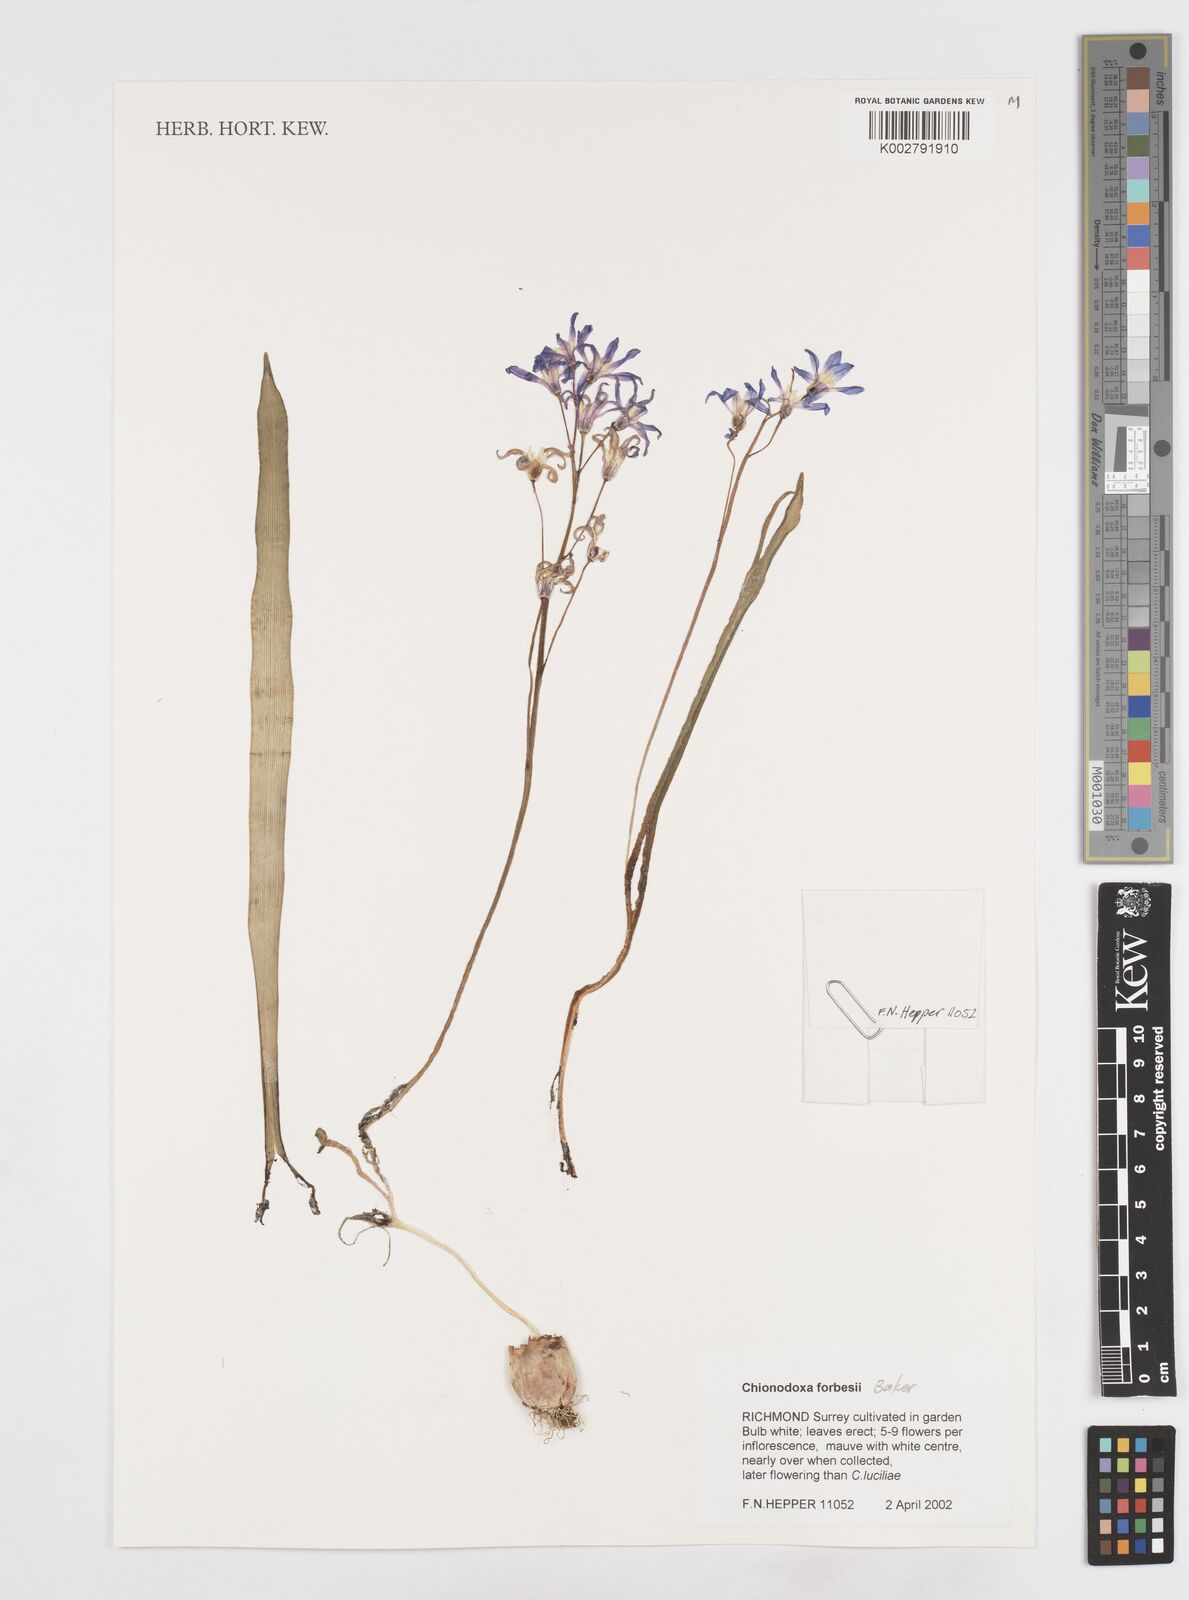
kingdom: Plantae
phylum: Tracheophyta
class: Liliopsida
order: Asparagales
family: Asparagaceae
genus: Scilla
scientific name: Scilla forbesii
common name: Glory-of-the-snow
